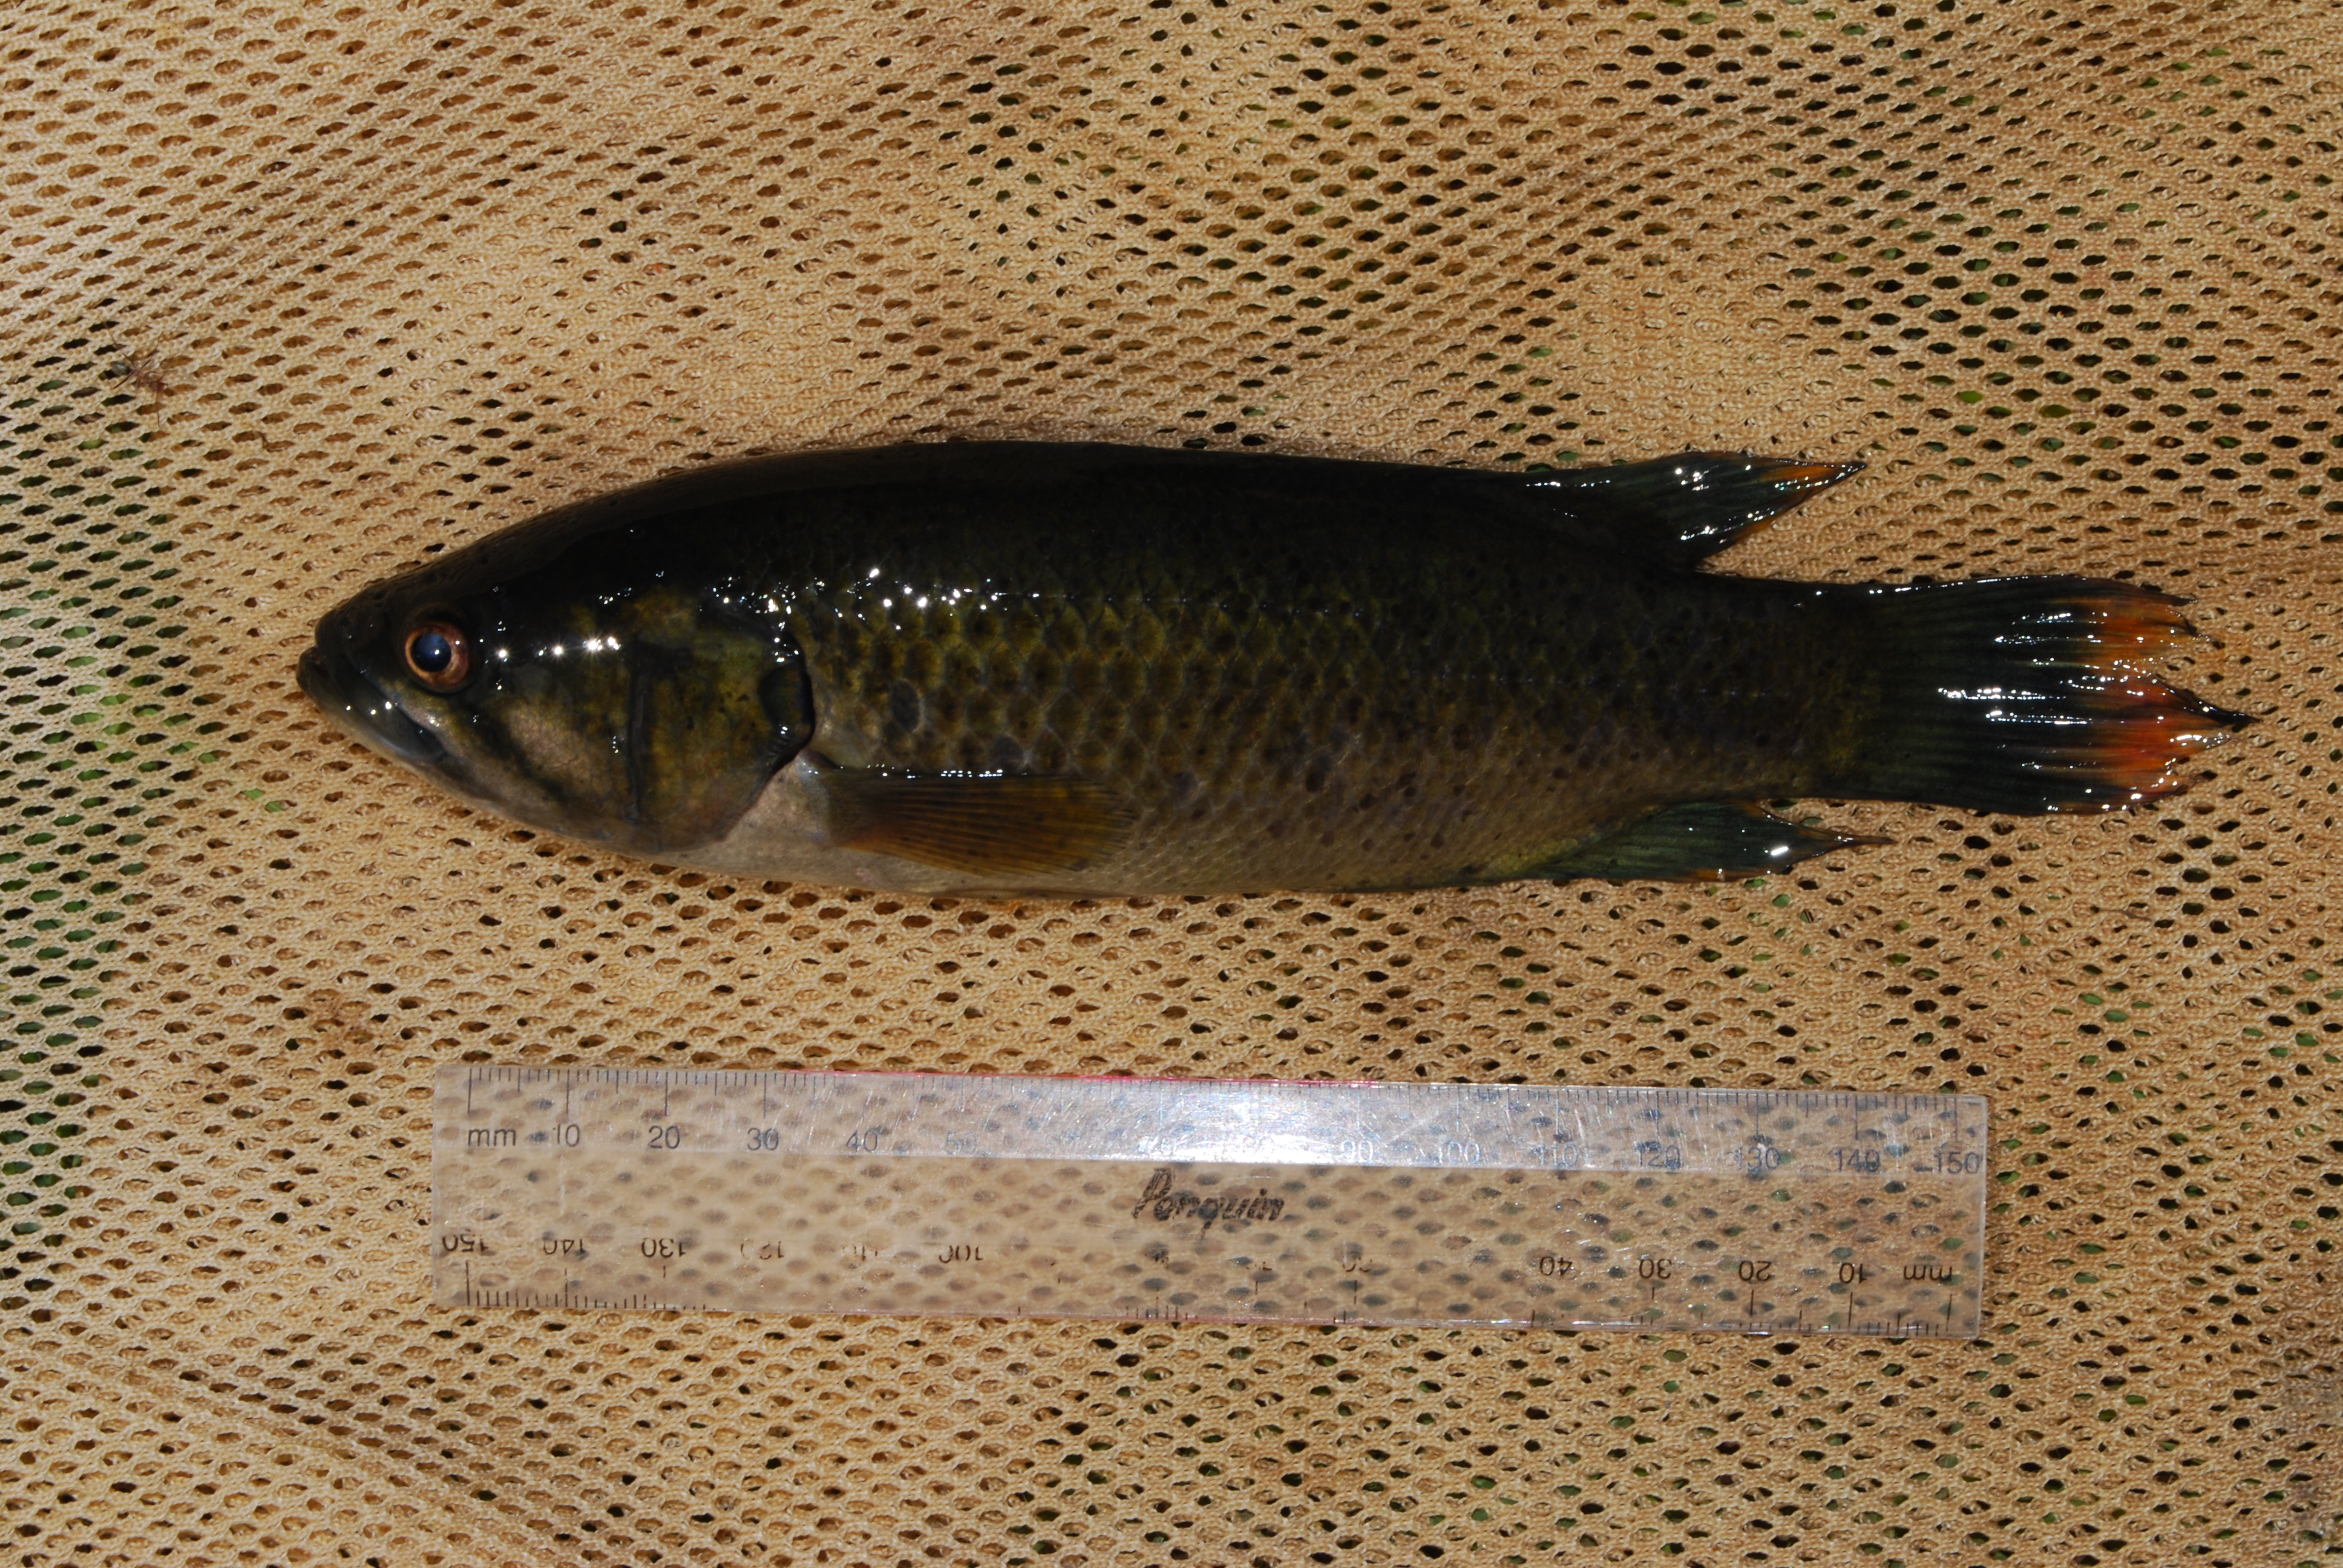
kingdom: Animalia
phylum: Chordata
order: Perciformes
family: Anabantidae
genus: Sandelia
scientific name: Sandelia bainsii
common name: Eastern cape rocky
